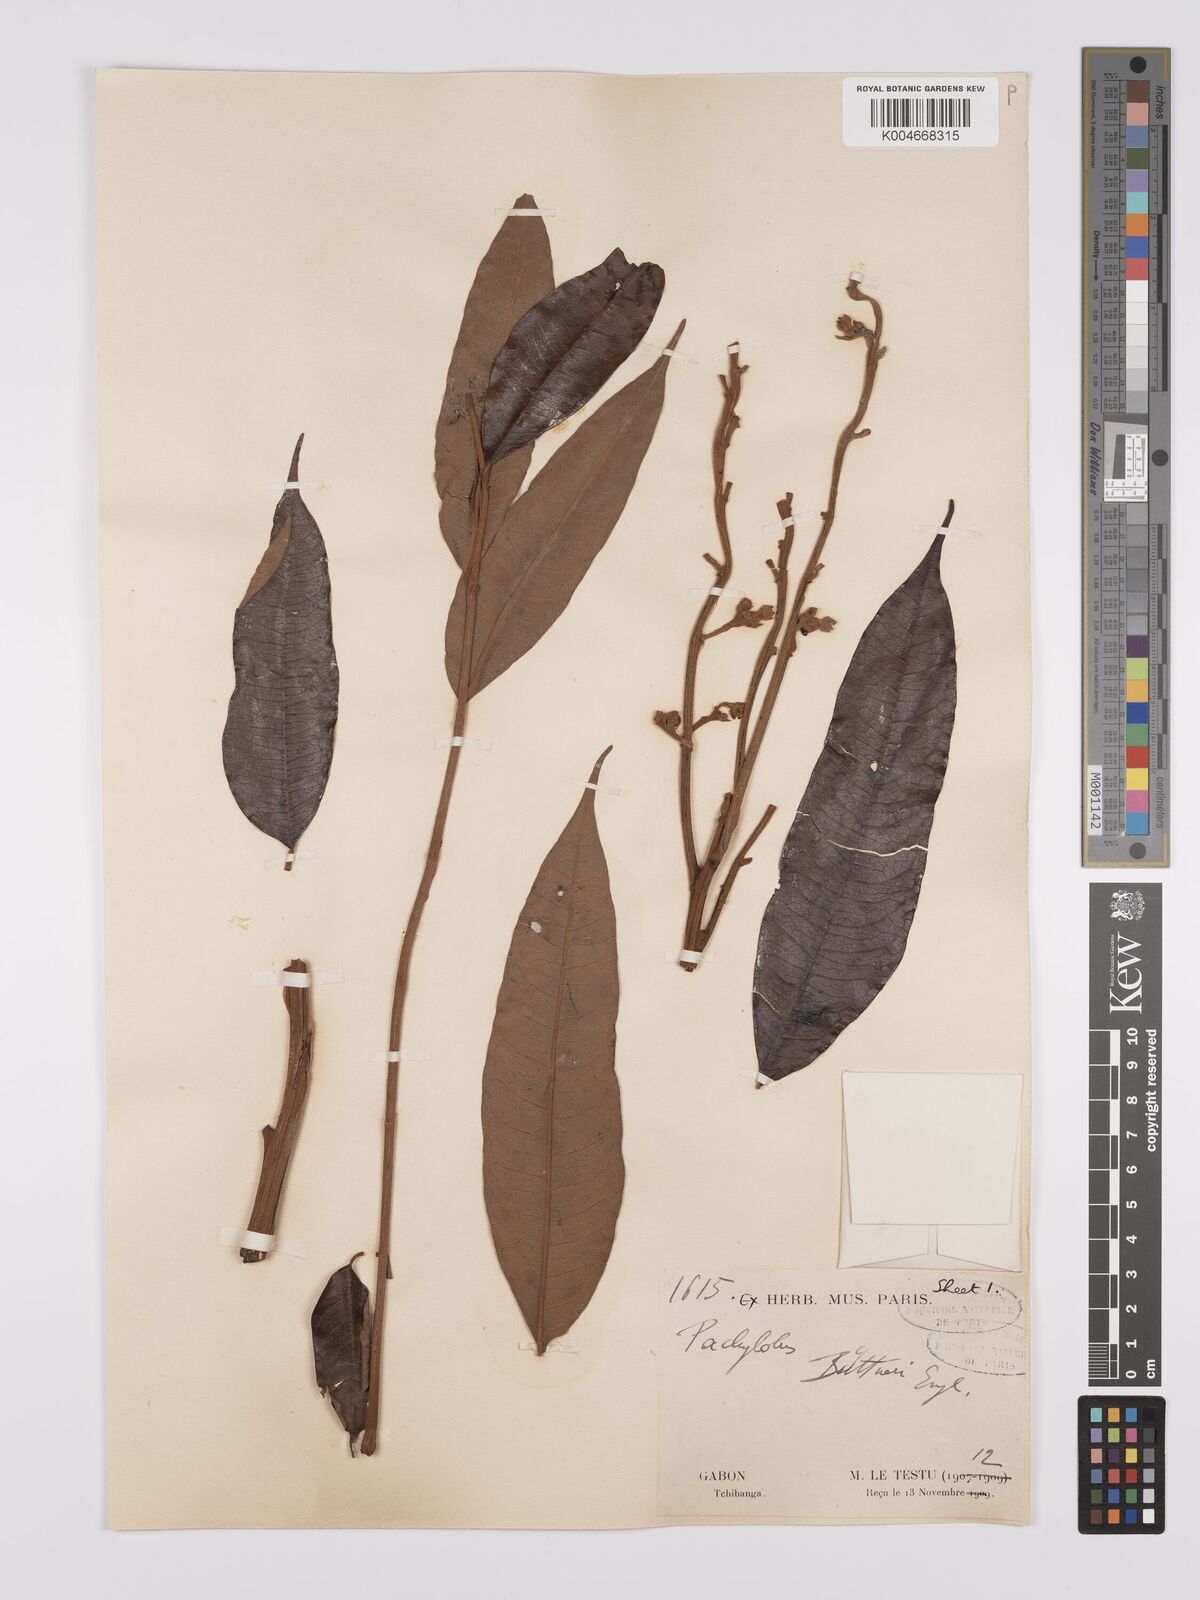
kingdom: Plantae
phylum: Tracheophyta
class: Magnoliopsida
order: Sapindales
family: Burseraceae
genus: Pachylobus
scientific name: Pachylobus buettneri
